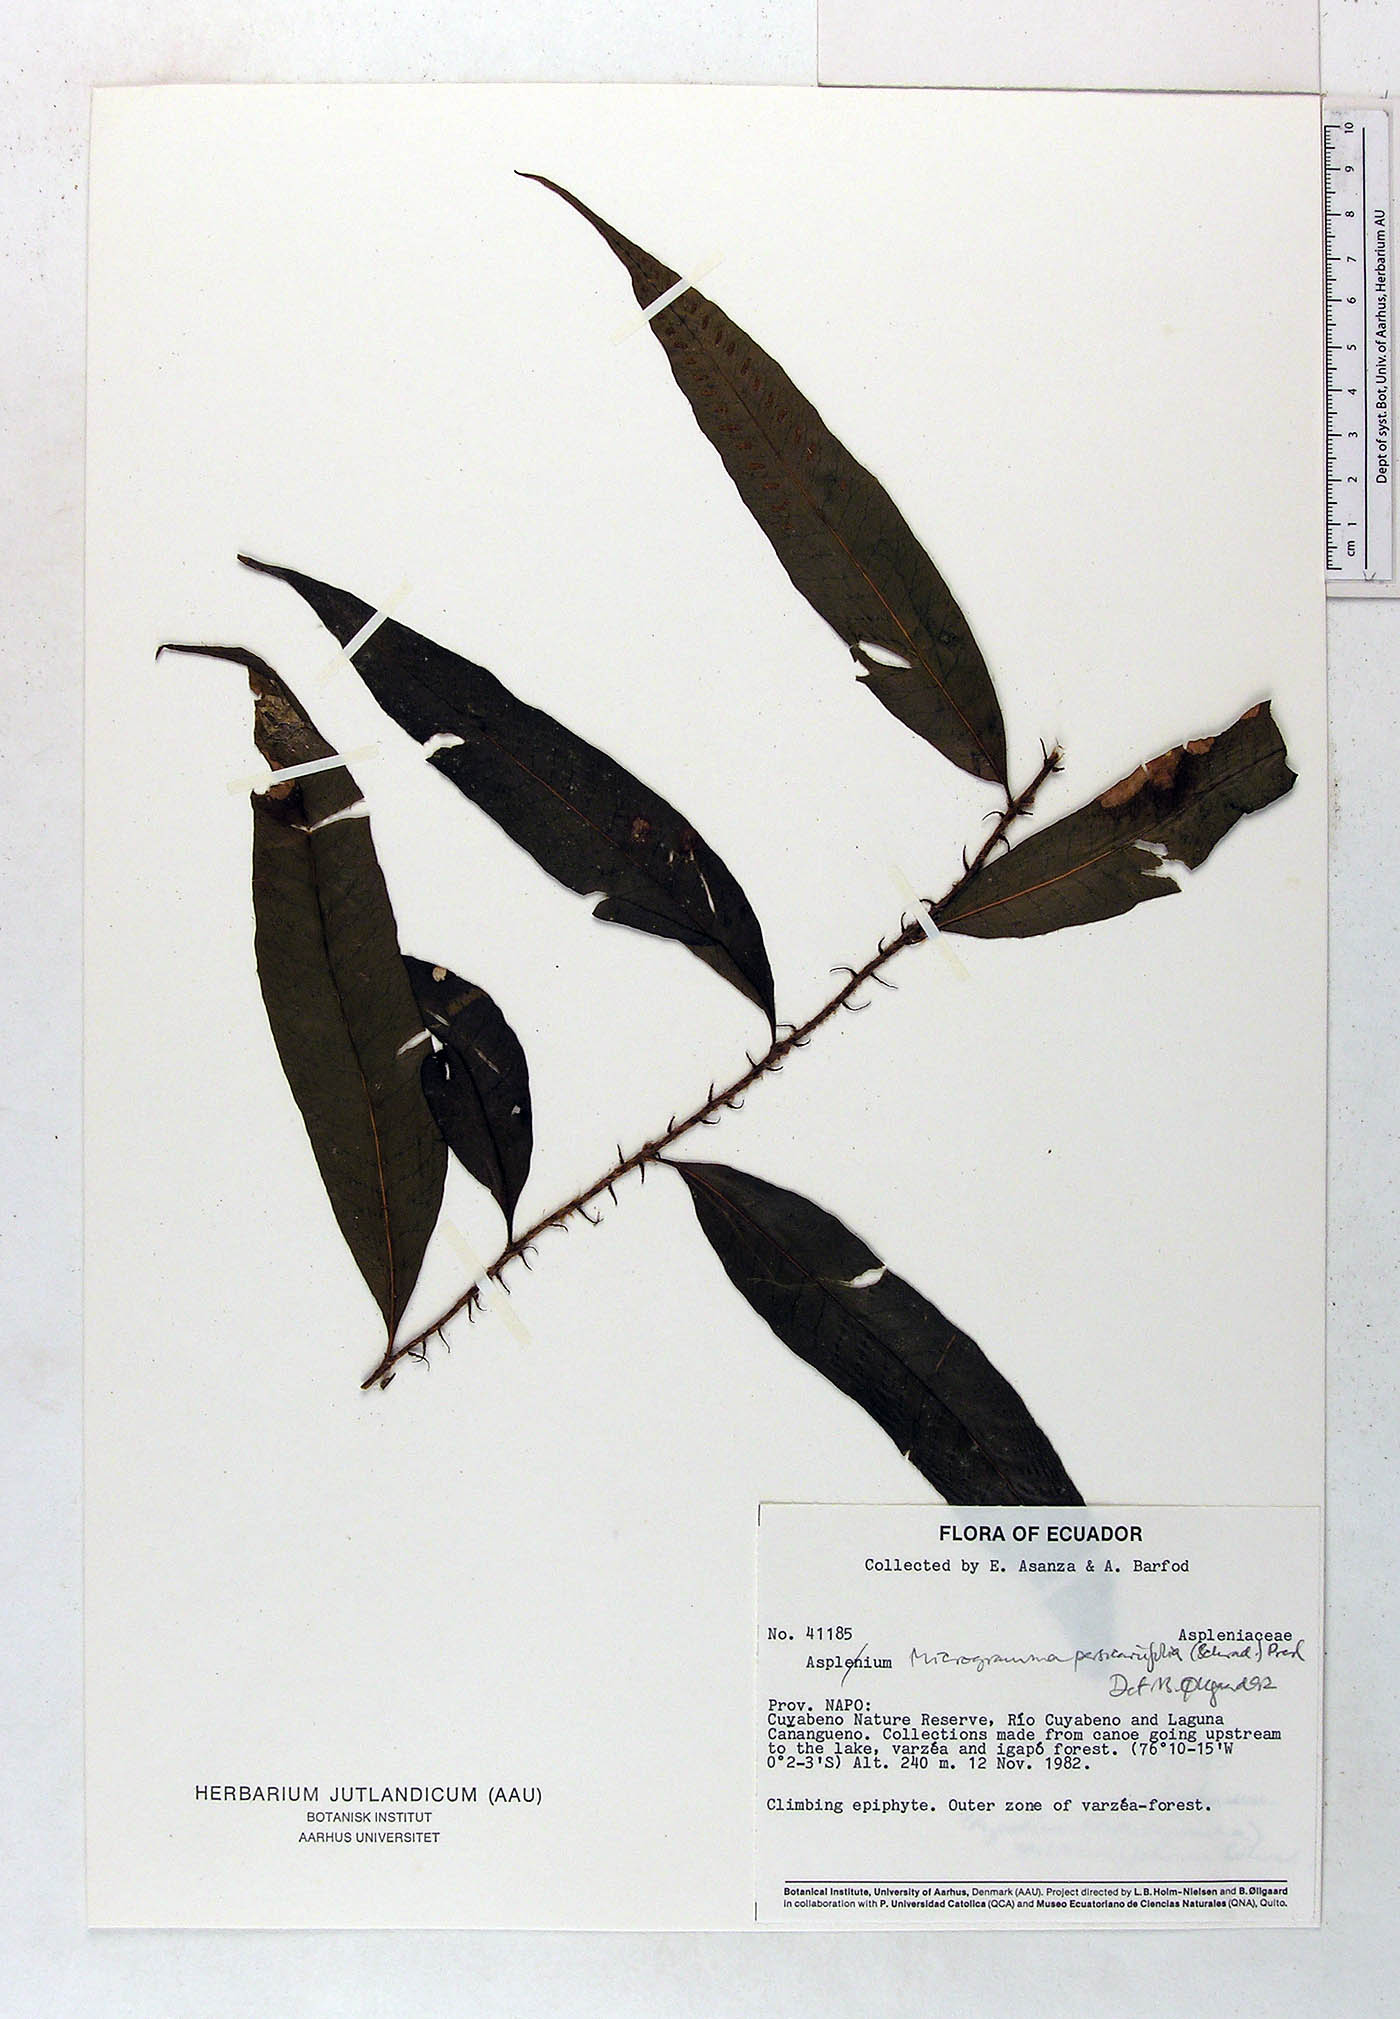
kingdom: Plantae
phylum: Tracheophyta
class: Polypodiopsida
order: Polypodiales
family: Polypodiaceae
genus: Microgramma
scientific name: Microgramma persicariifolia
